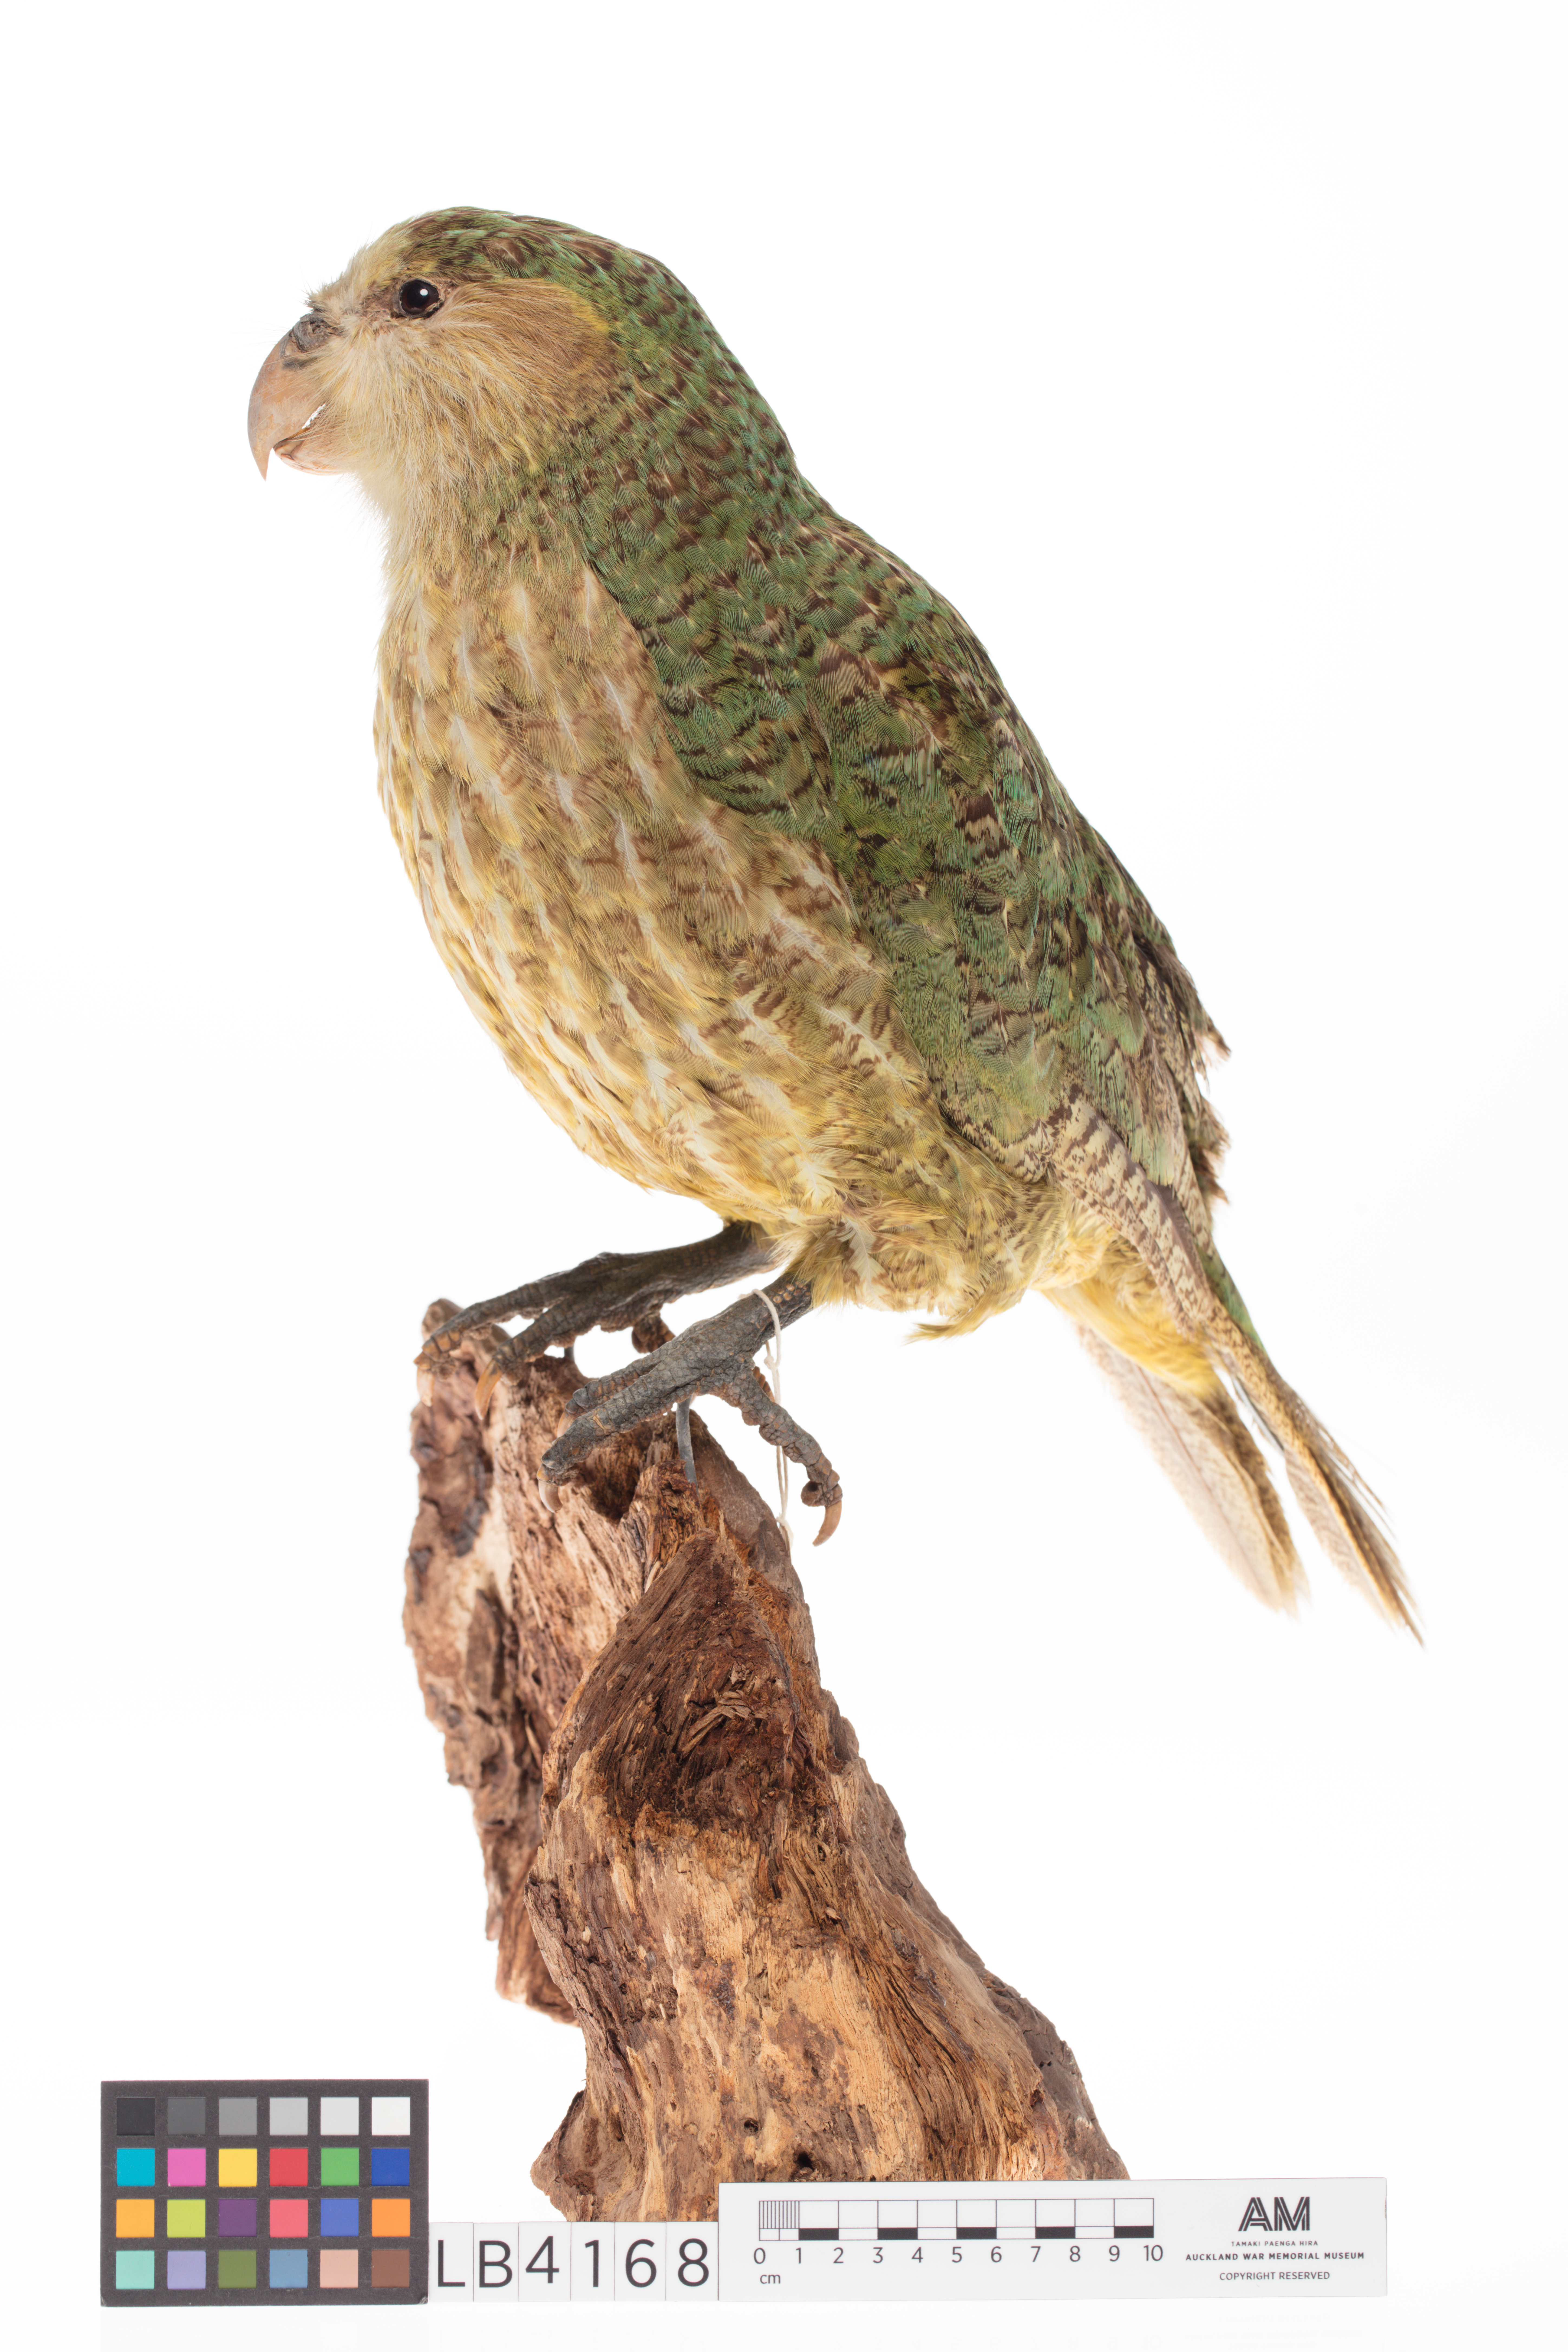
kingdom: Animalia
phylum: Chordata
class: Aves
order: Psittaciformes
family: Psittacidae
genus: Strigops
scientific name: Strigops habroptila
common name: Kakapo
